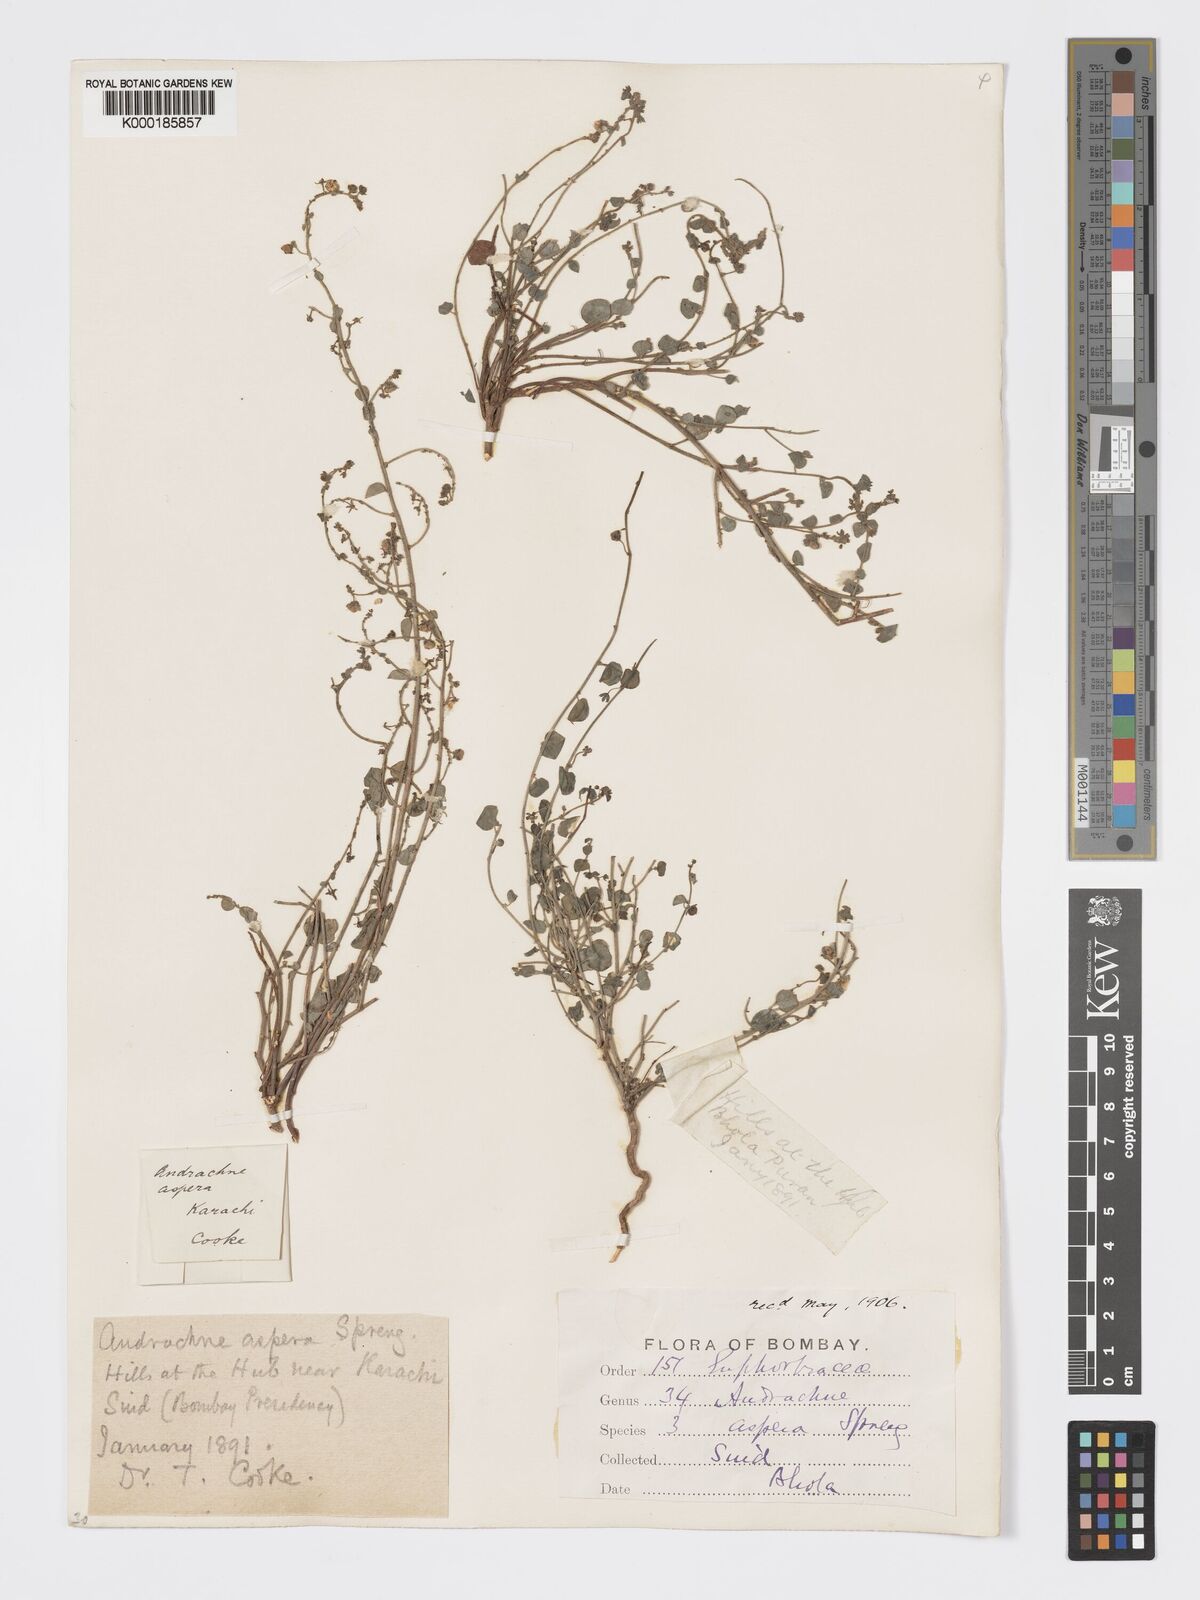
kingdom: Plantae
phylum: Tracheophyta
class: Magnoliopsida
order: Malpighiales
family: Phyllanthaceae
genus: Andrachne
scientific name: Andrachne aspera
